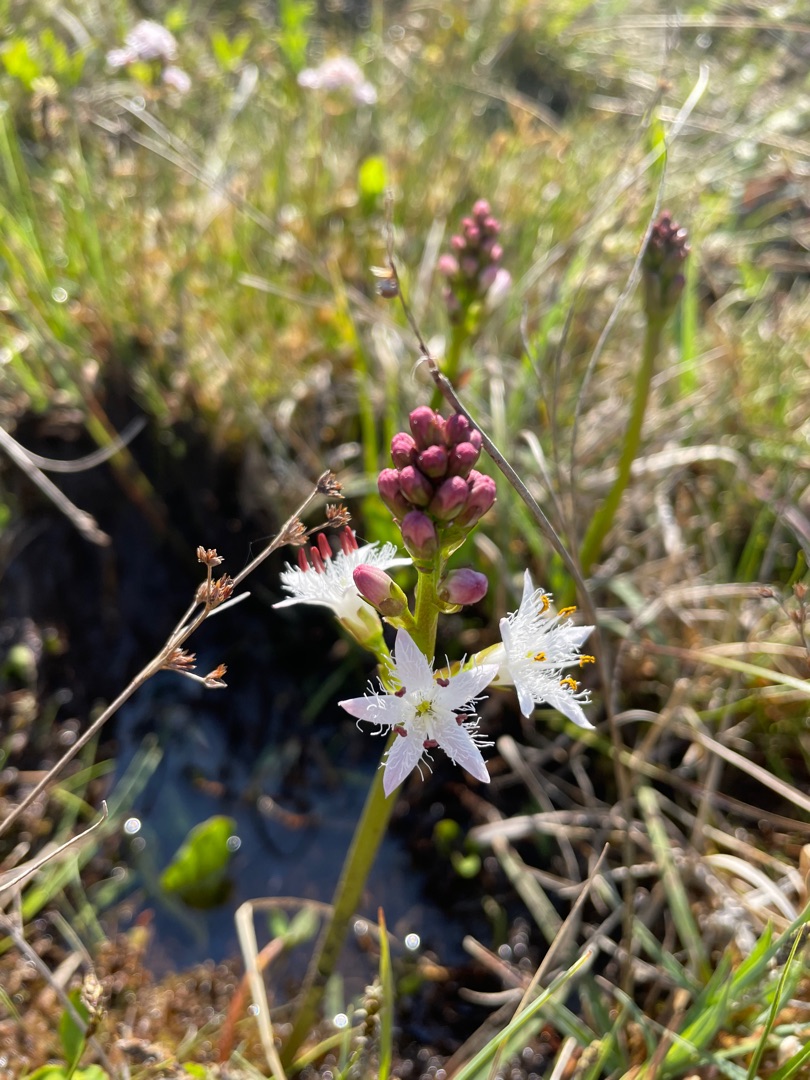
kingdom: Plantae
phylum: Tracheophyta
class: Magnoliopsida
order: Asterales
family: Menyanthaceae
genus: Menyanthes
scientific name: Menyanthes trifoliata
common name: Bukkeblad
